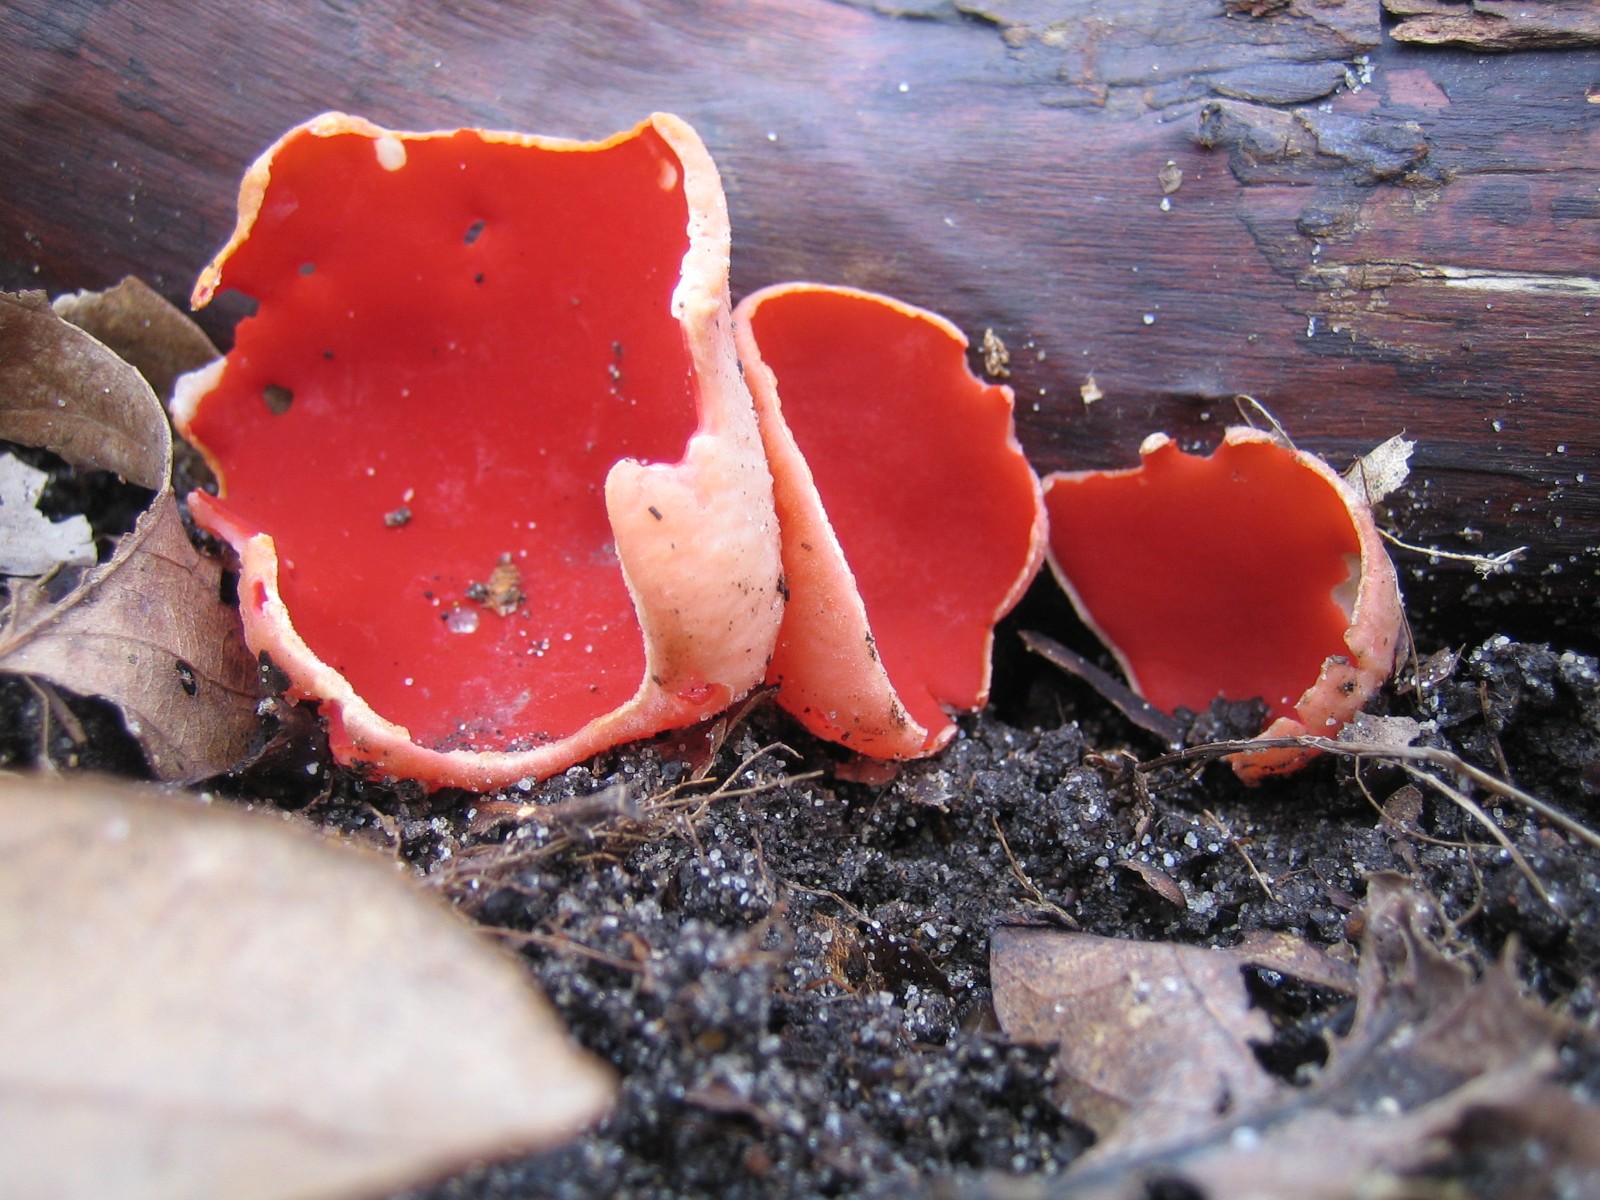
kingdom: Fungi
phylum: Ascomycota
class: Pezizomycetes
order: Pezizales
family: Sarcoscyphaceae
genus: Sarcoscypha
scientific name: Sarcoscypha austriaca
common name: krølhåret pragtbæger
